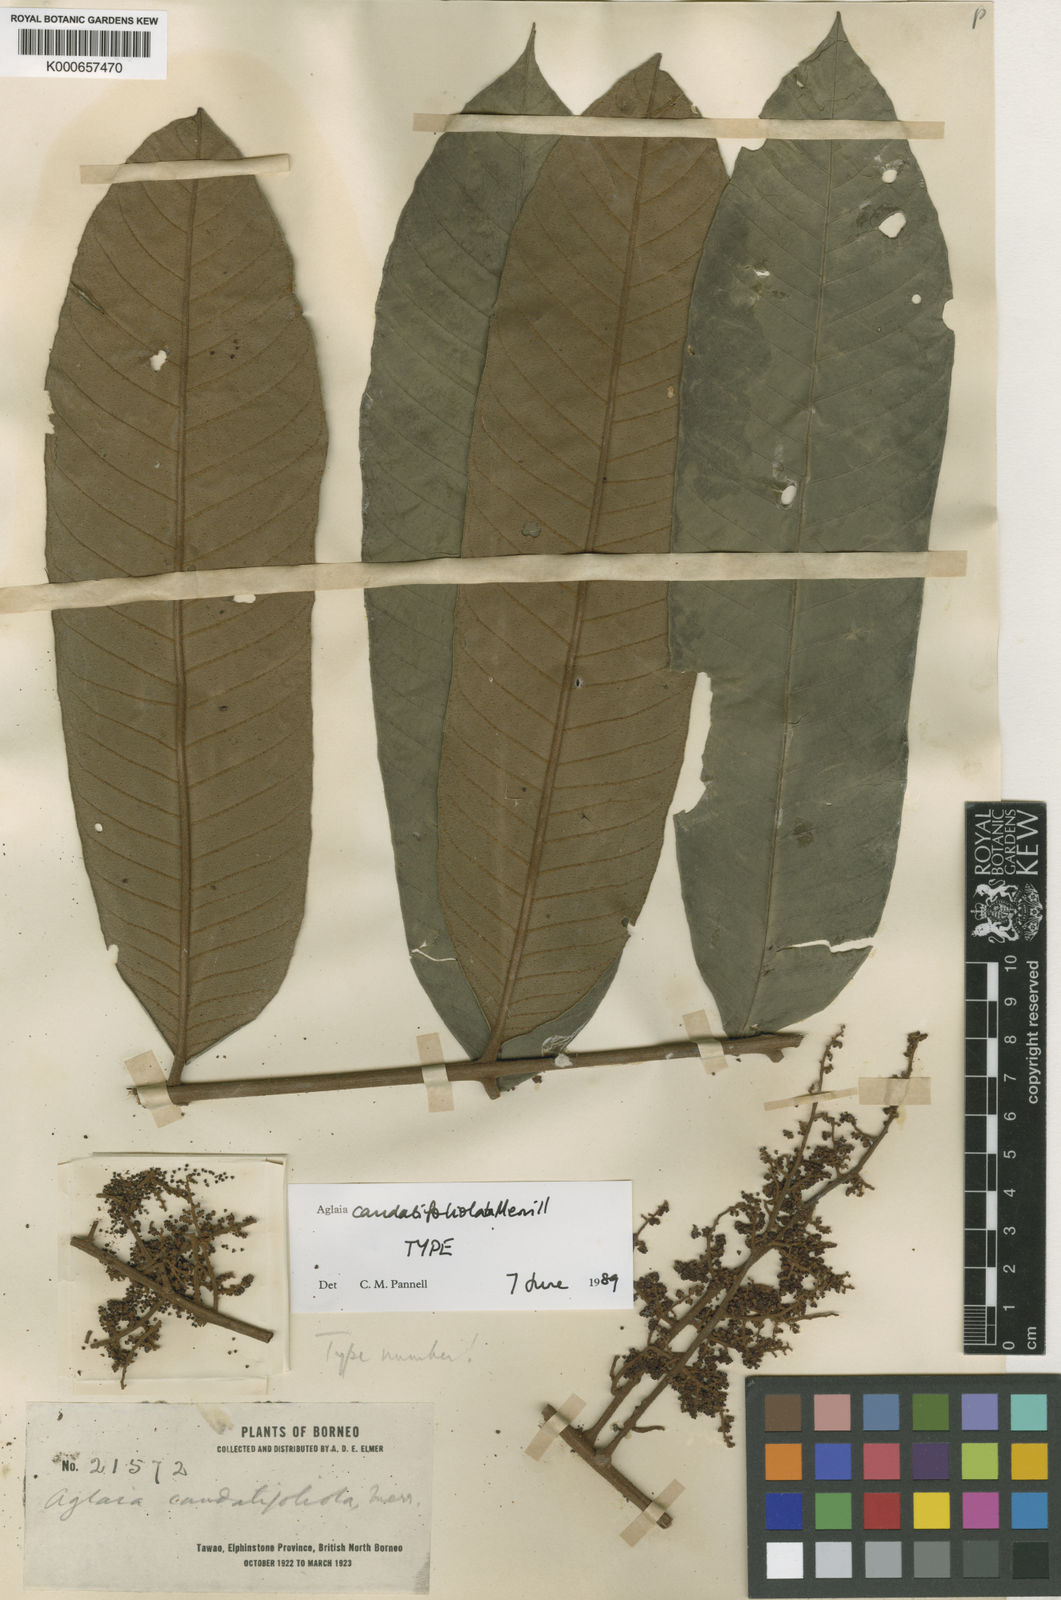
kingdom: Plantae
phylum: Tracheophyta
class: Magnoliopsida
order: Sapindales
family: Meliaceae
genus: Aglaia
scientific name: Aglaia hiernii
